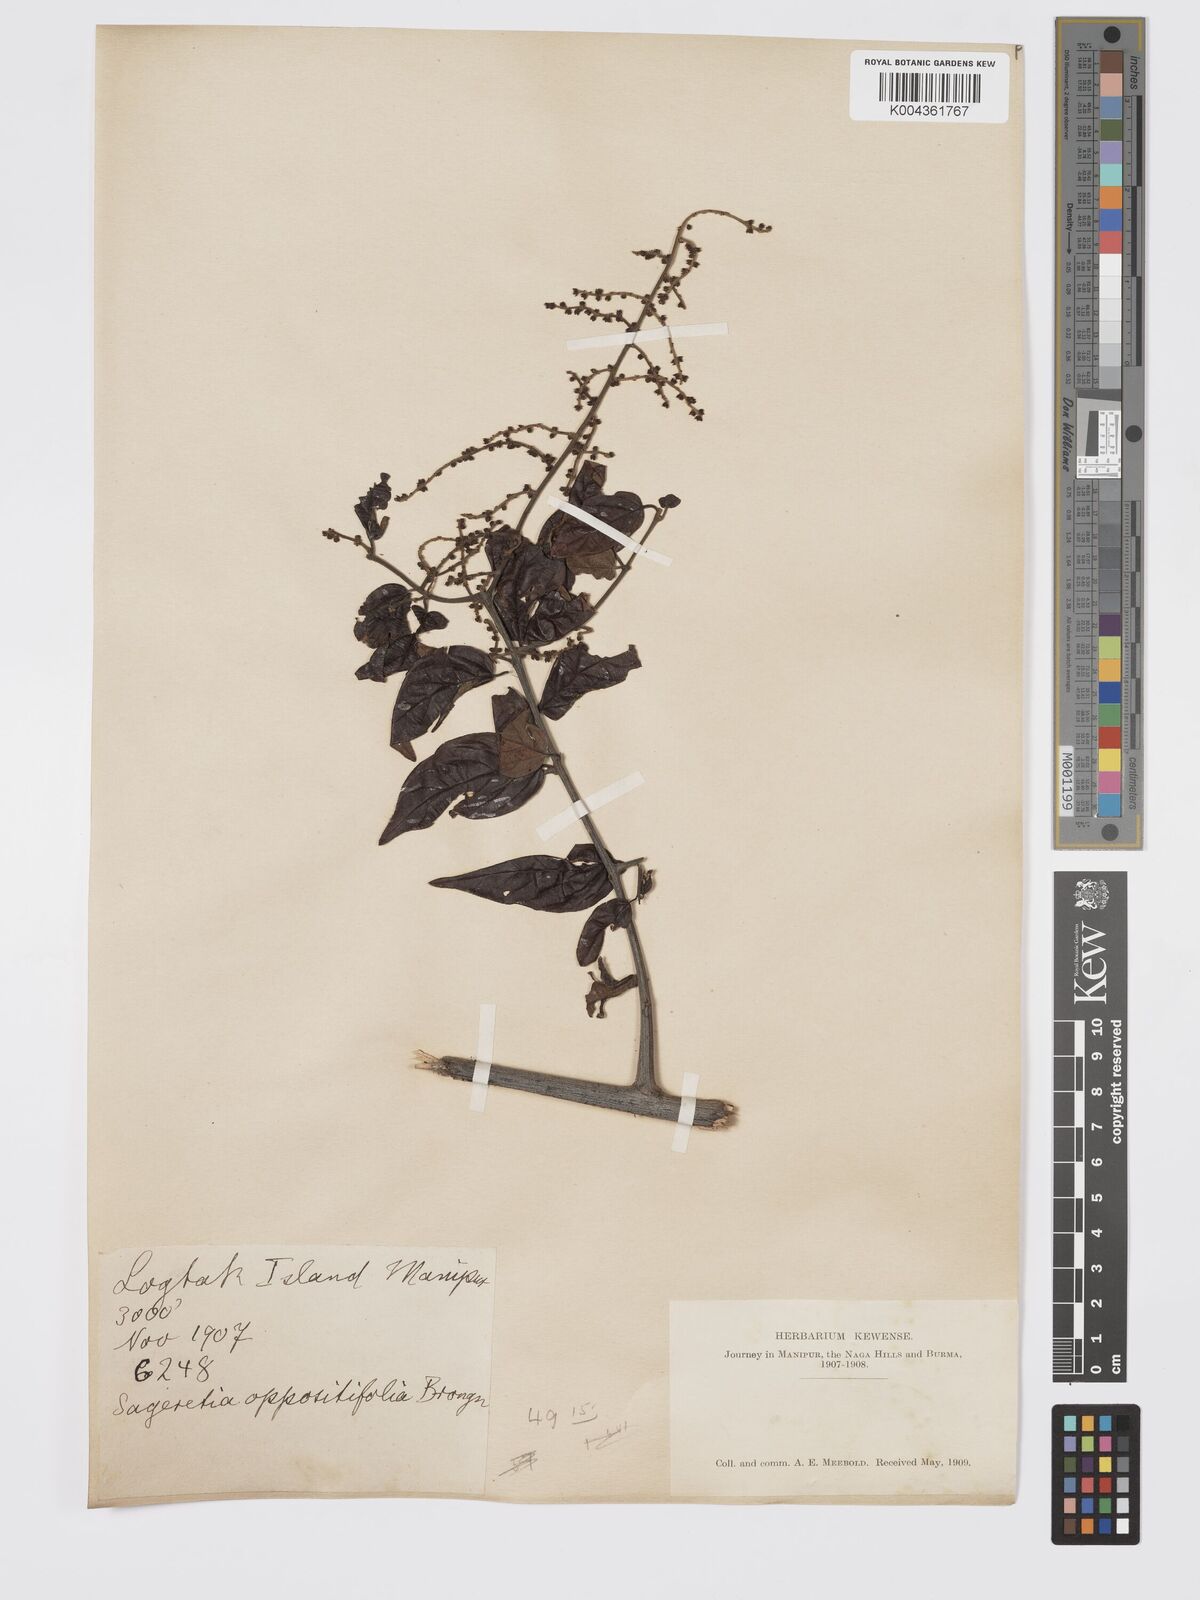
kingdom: Plantae
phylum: Tracheophyta
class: Magnoliopsida
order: Rosales
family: Rhamnaceae
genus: Sageretia
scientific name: Sageretia filiformis
